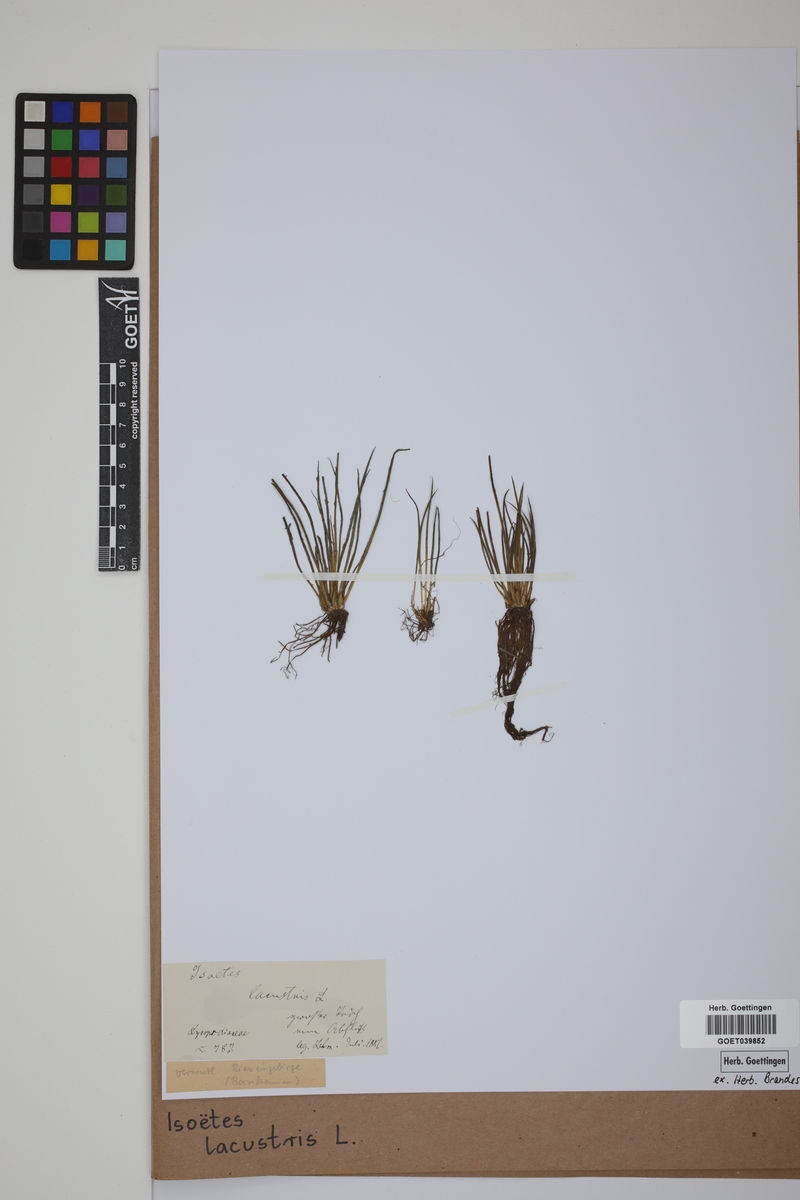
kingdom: Plantae
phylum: Tracheophyta
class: Lycopodiopsida
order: Isoetales
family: Isoetaceae
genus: Isoetes
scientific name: Isoetes lacustris
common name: Common quillwort
